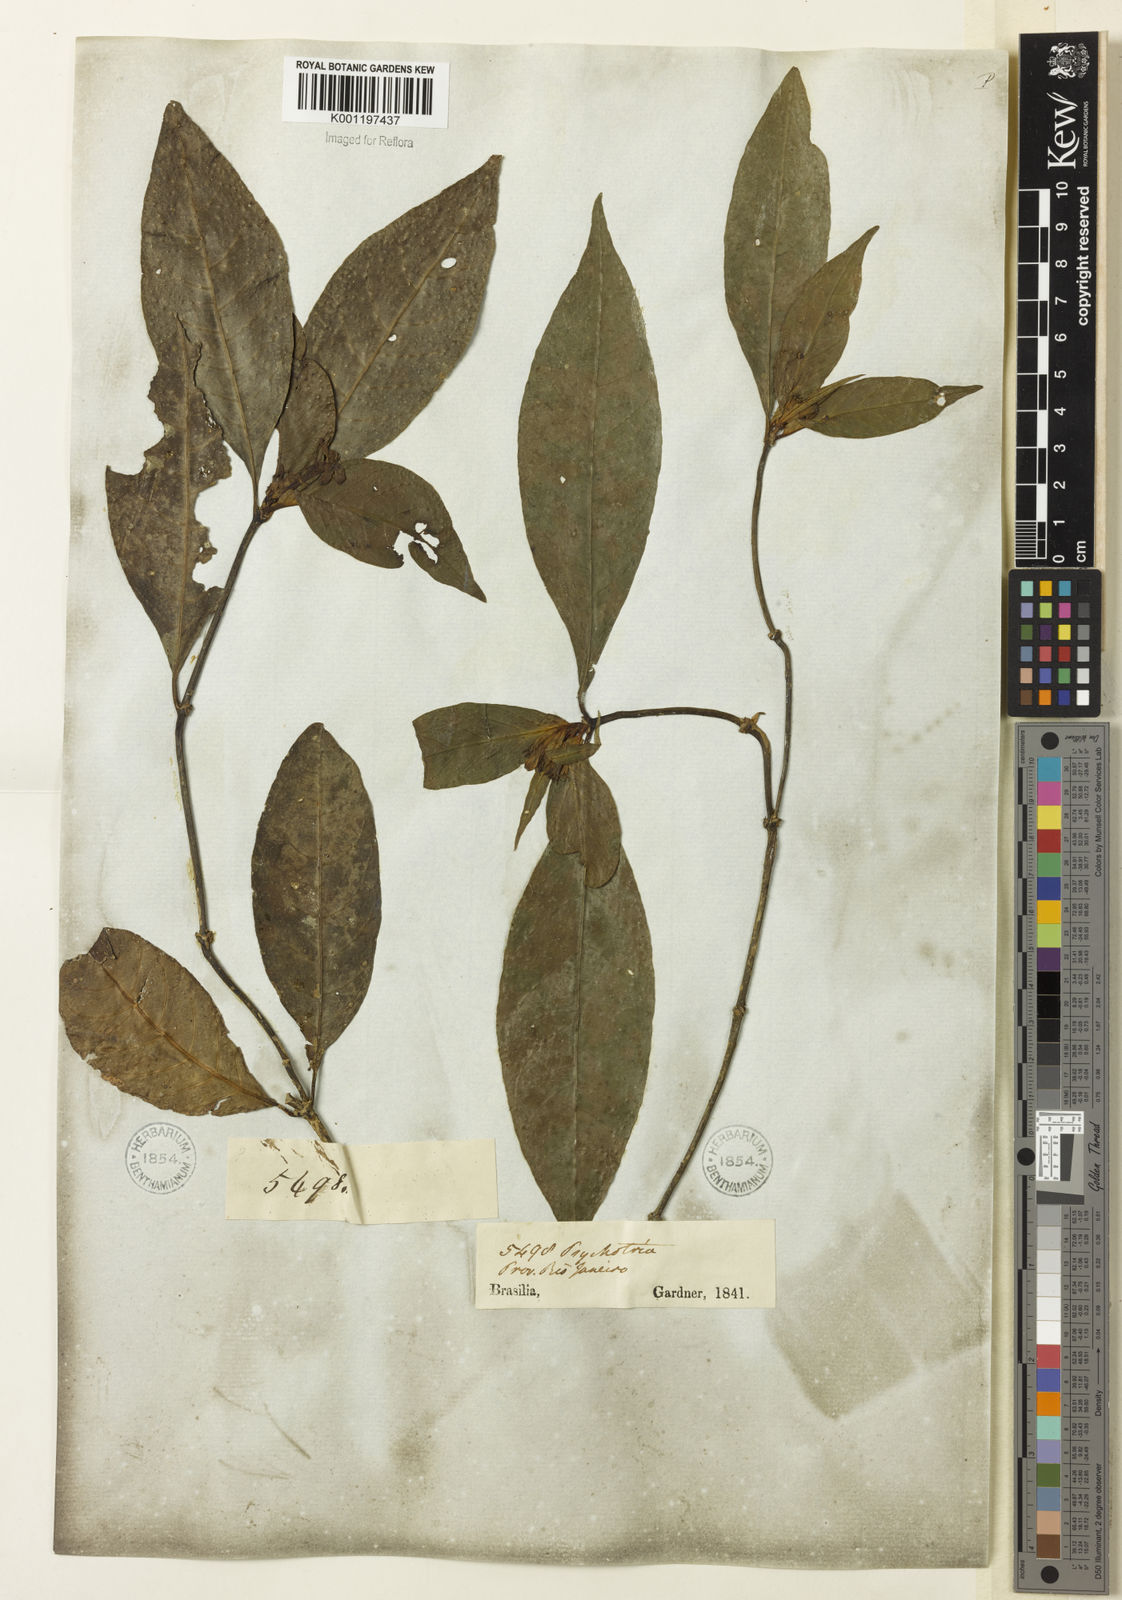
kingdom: Plantae
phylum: Tracheophyta
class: Magnoliopsida
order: Gentianales
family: Rubiaceae
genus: Psychotria
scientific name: Psychotria
